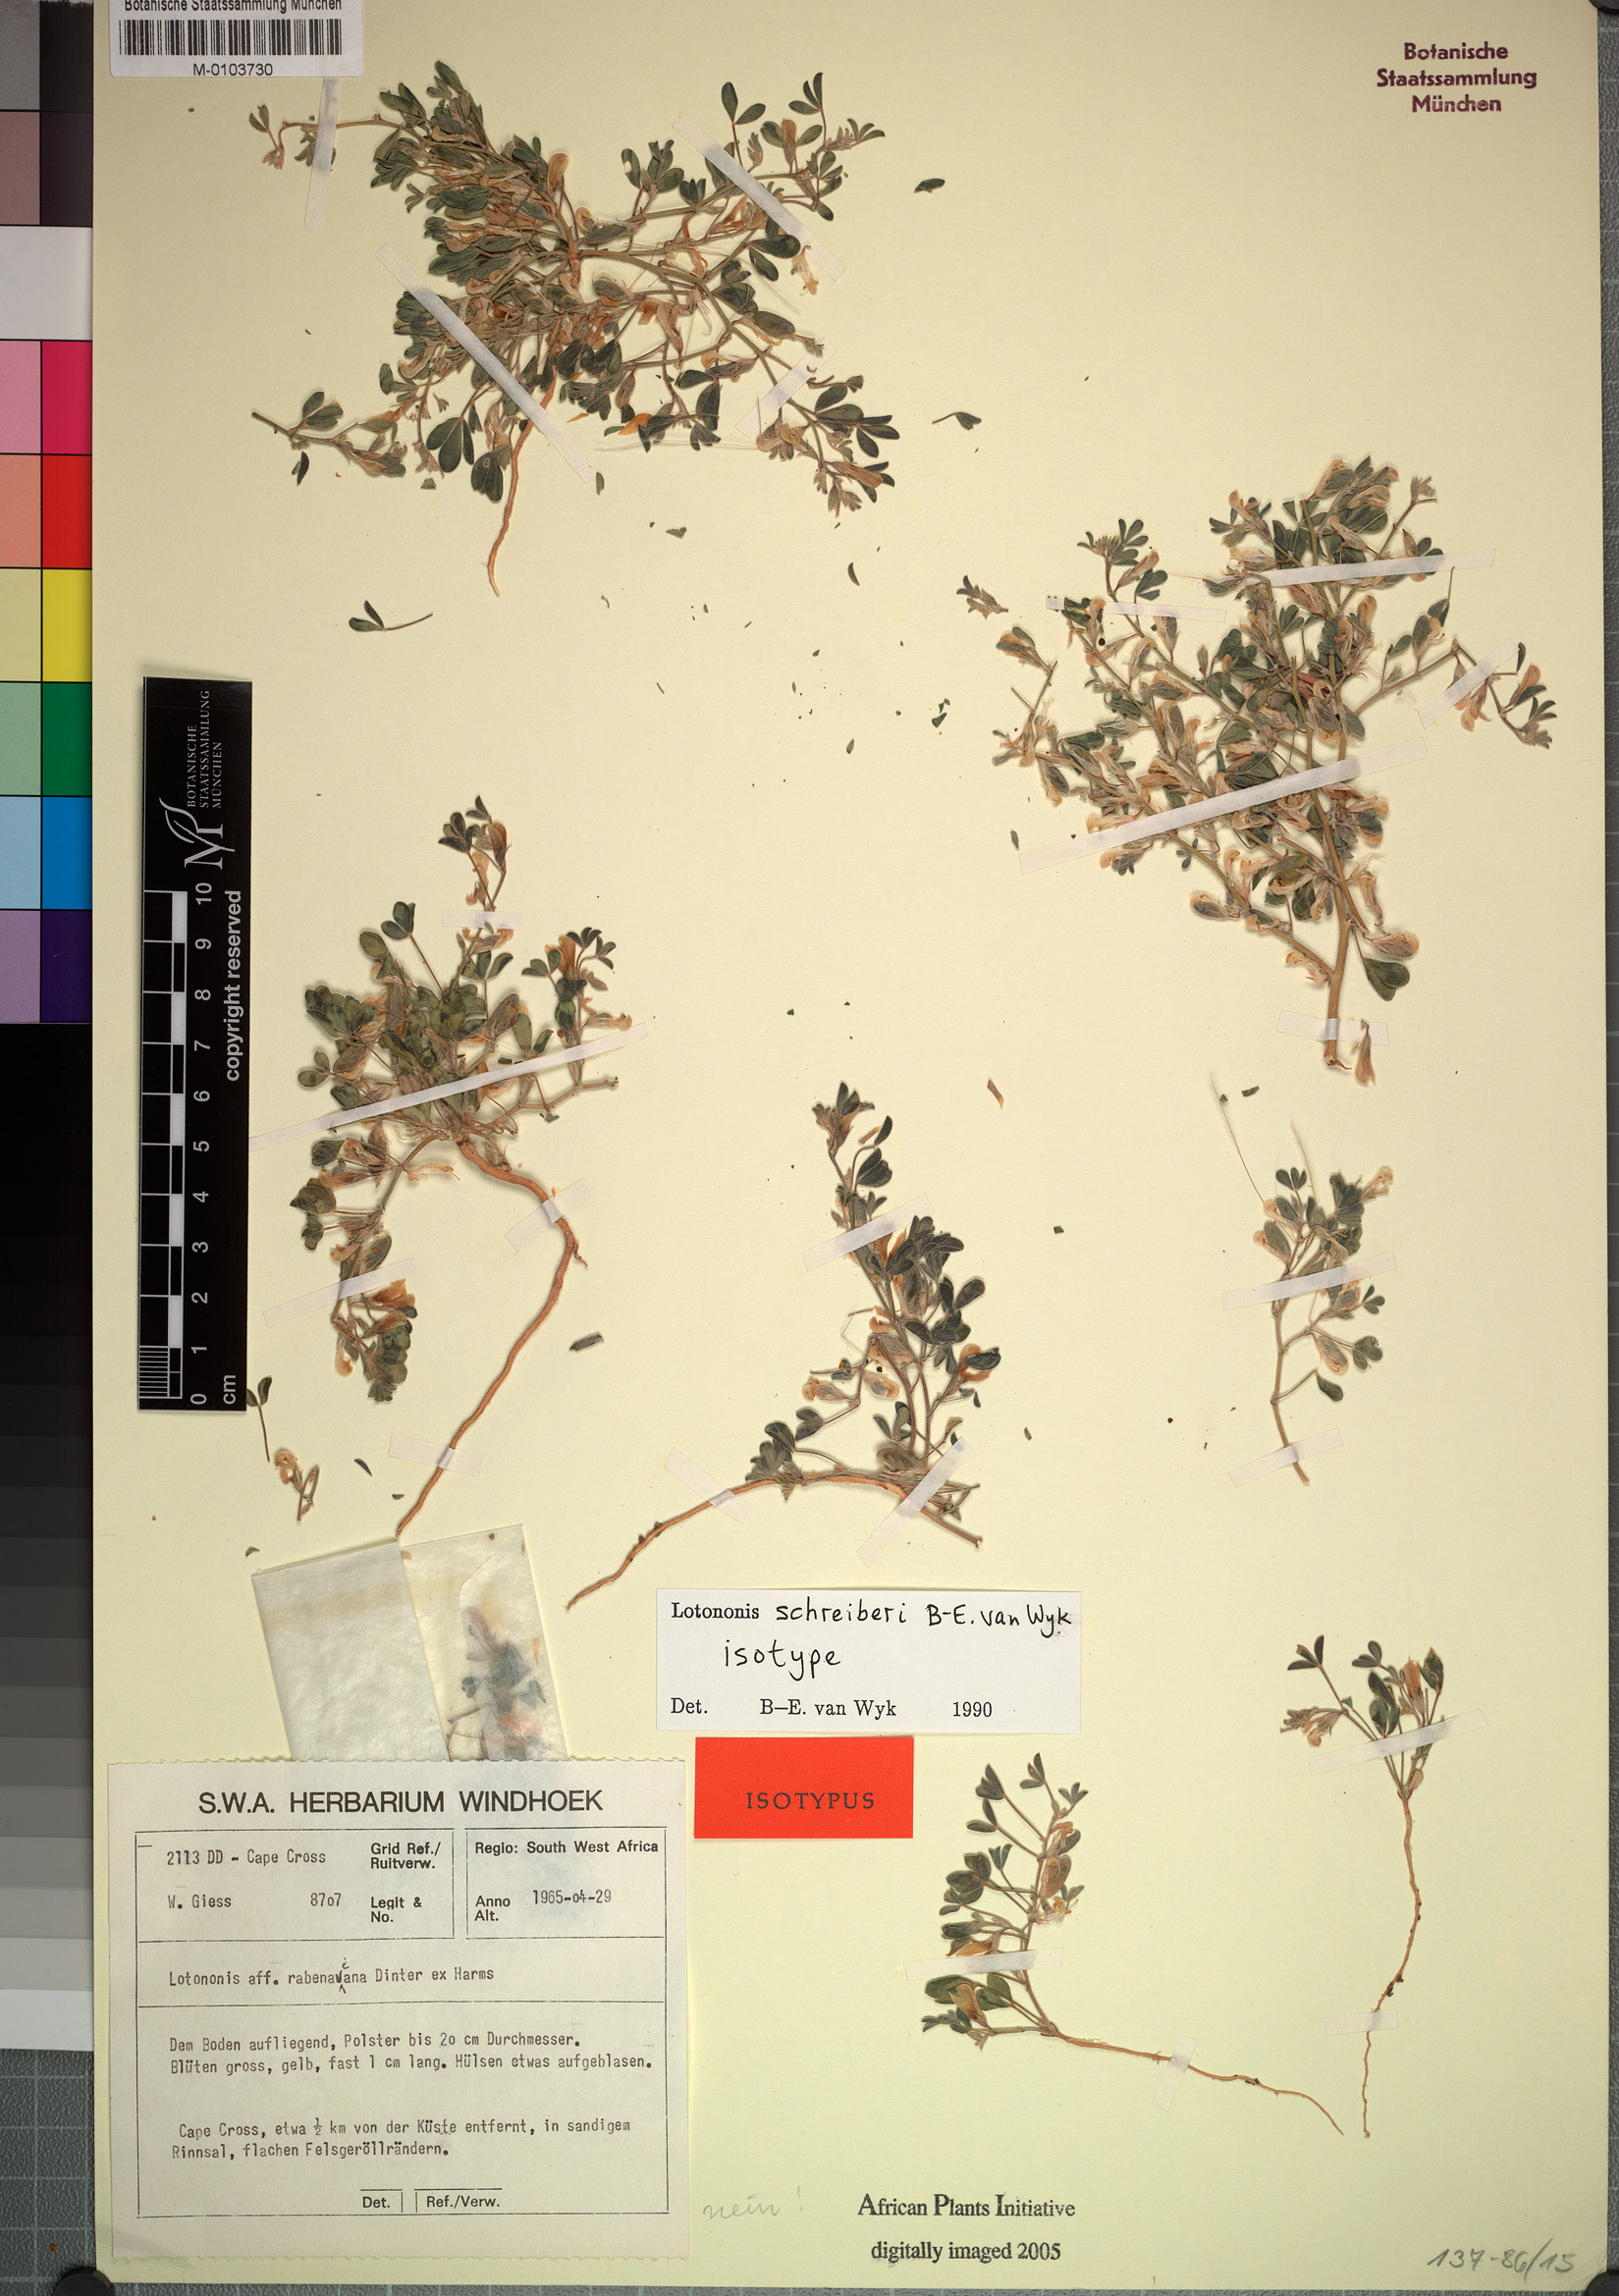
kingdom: Plantae
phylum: Tracheophyta
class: Magnoliopsida
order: Fabales
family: Fabaceae
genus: Lotononis
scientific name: Lotononis schreiberae
